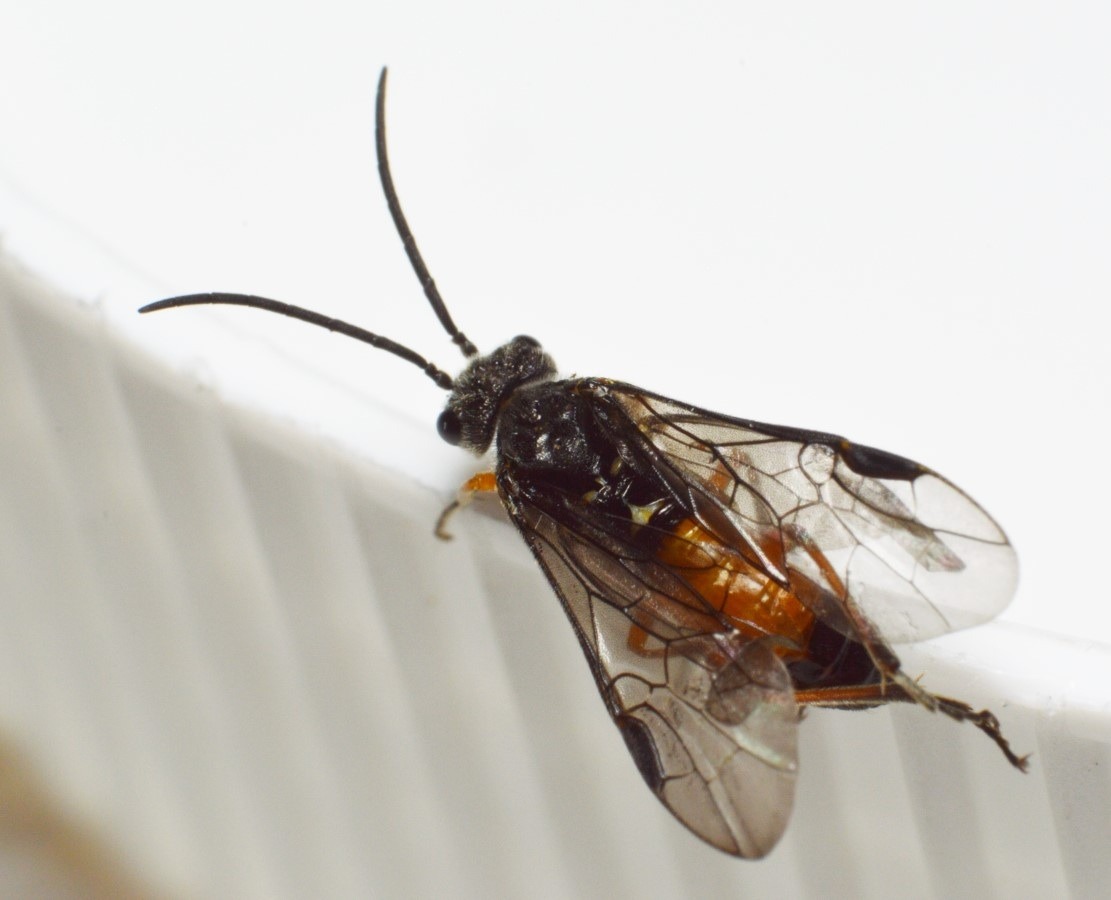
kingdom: Animalia
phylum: Arthropoda
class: Insecta
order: Hymenoptera
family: Tenthredinidae
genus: Dolerus
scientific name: Dolerus germanicus
